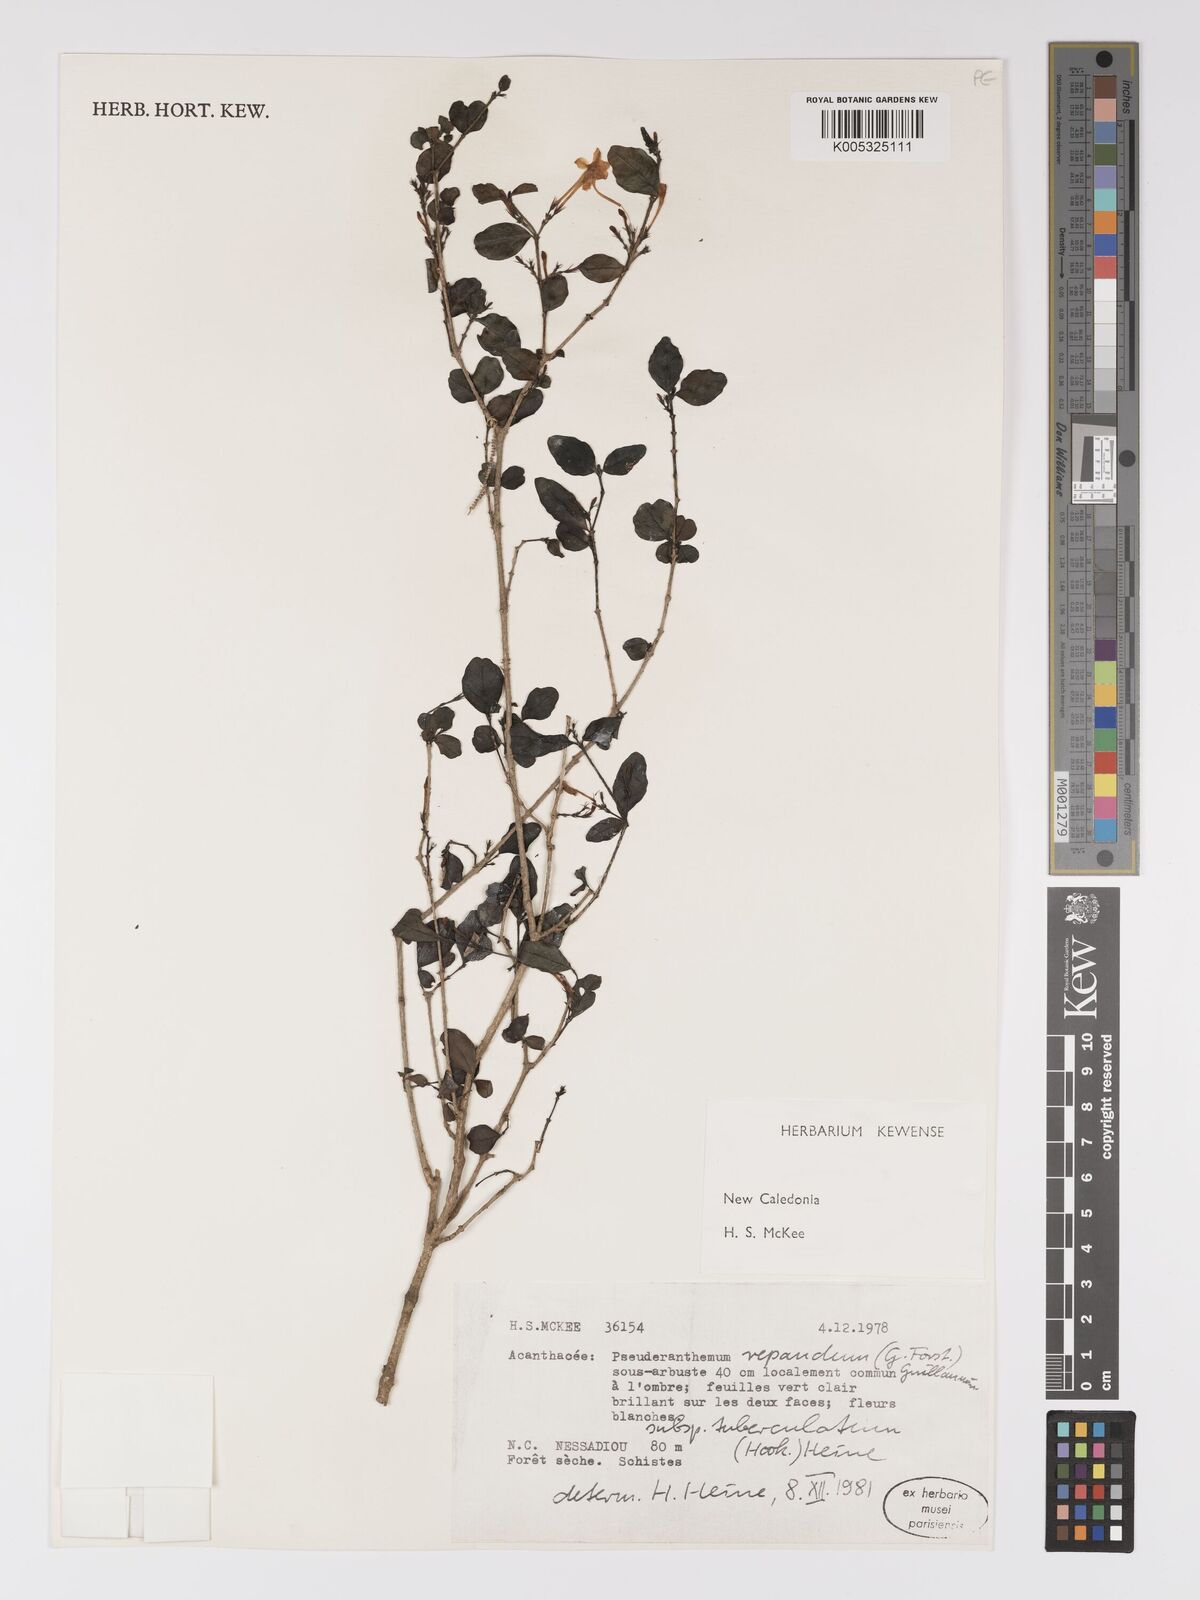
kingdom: Plantae
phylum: Tracheophyta
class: Magnoliopsida
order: Lamiales
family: Acanthaceae
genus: Pseuderanthemum
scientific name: Pseuderanthemum repandum
